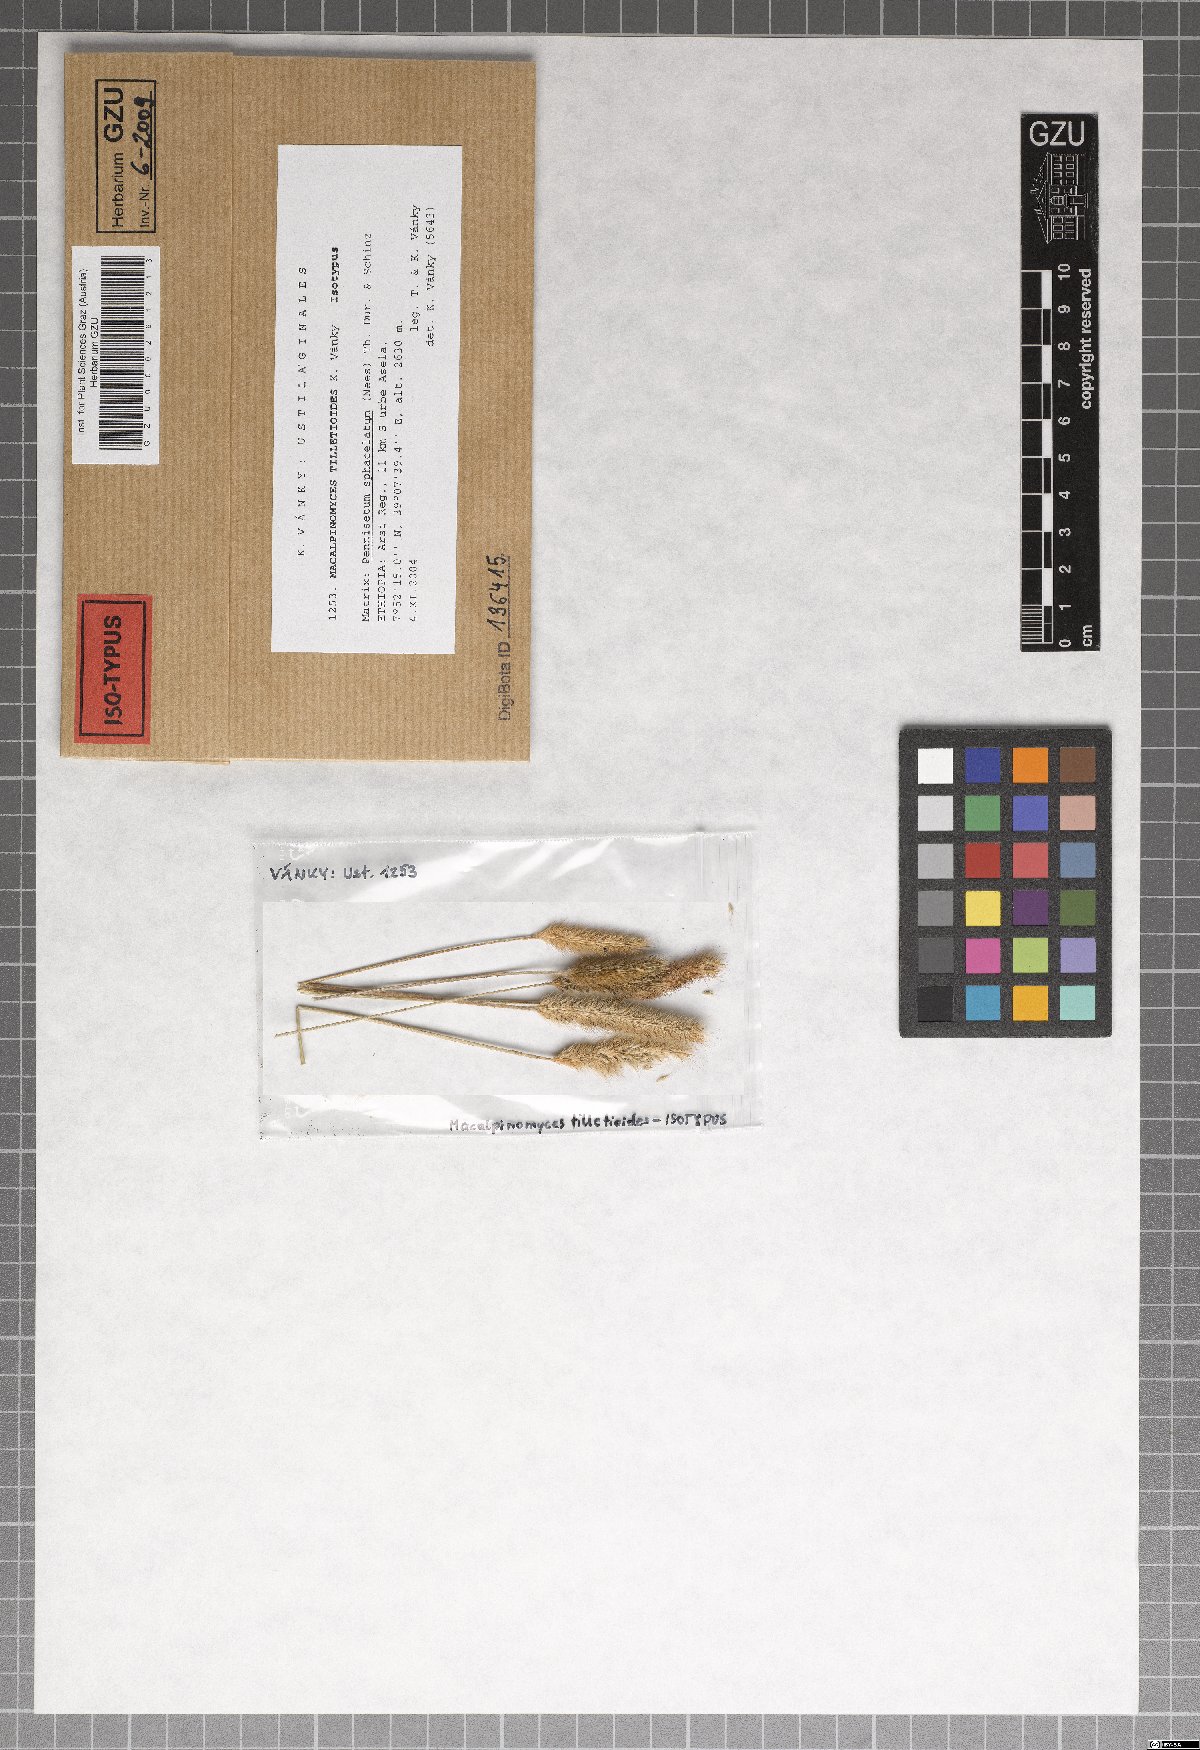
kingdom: Fungi
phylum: Basidiomycota
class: Ustilaginomycetes
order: Ustilaginales
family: Ustilaginaceae
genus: Macalpinomyces
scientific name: Macalpinomyces tilletioides
